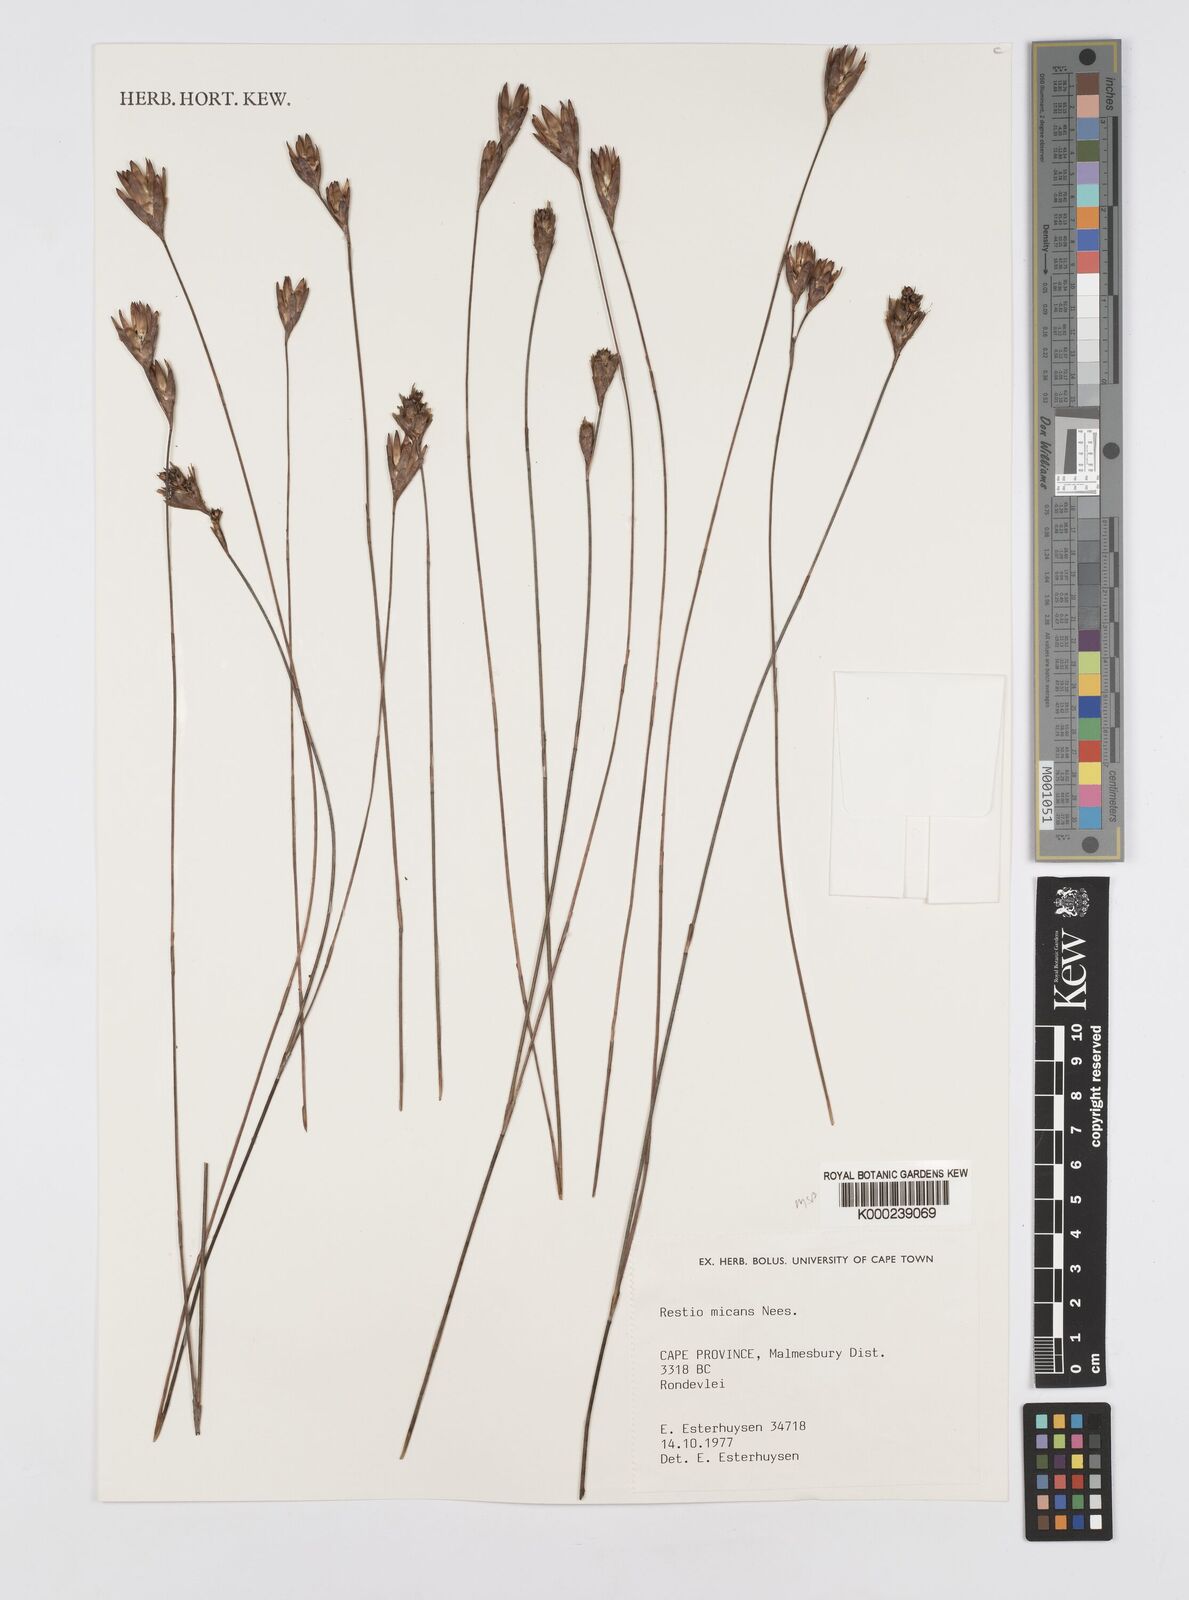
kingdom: Plantae
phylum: Tracheophyta
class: Liliopsida
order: Poales
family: Restionaceae
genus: Restio
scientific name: Restio micans
